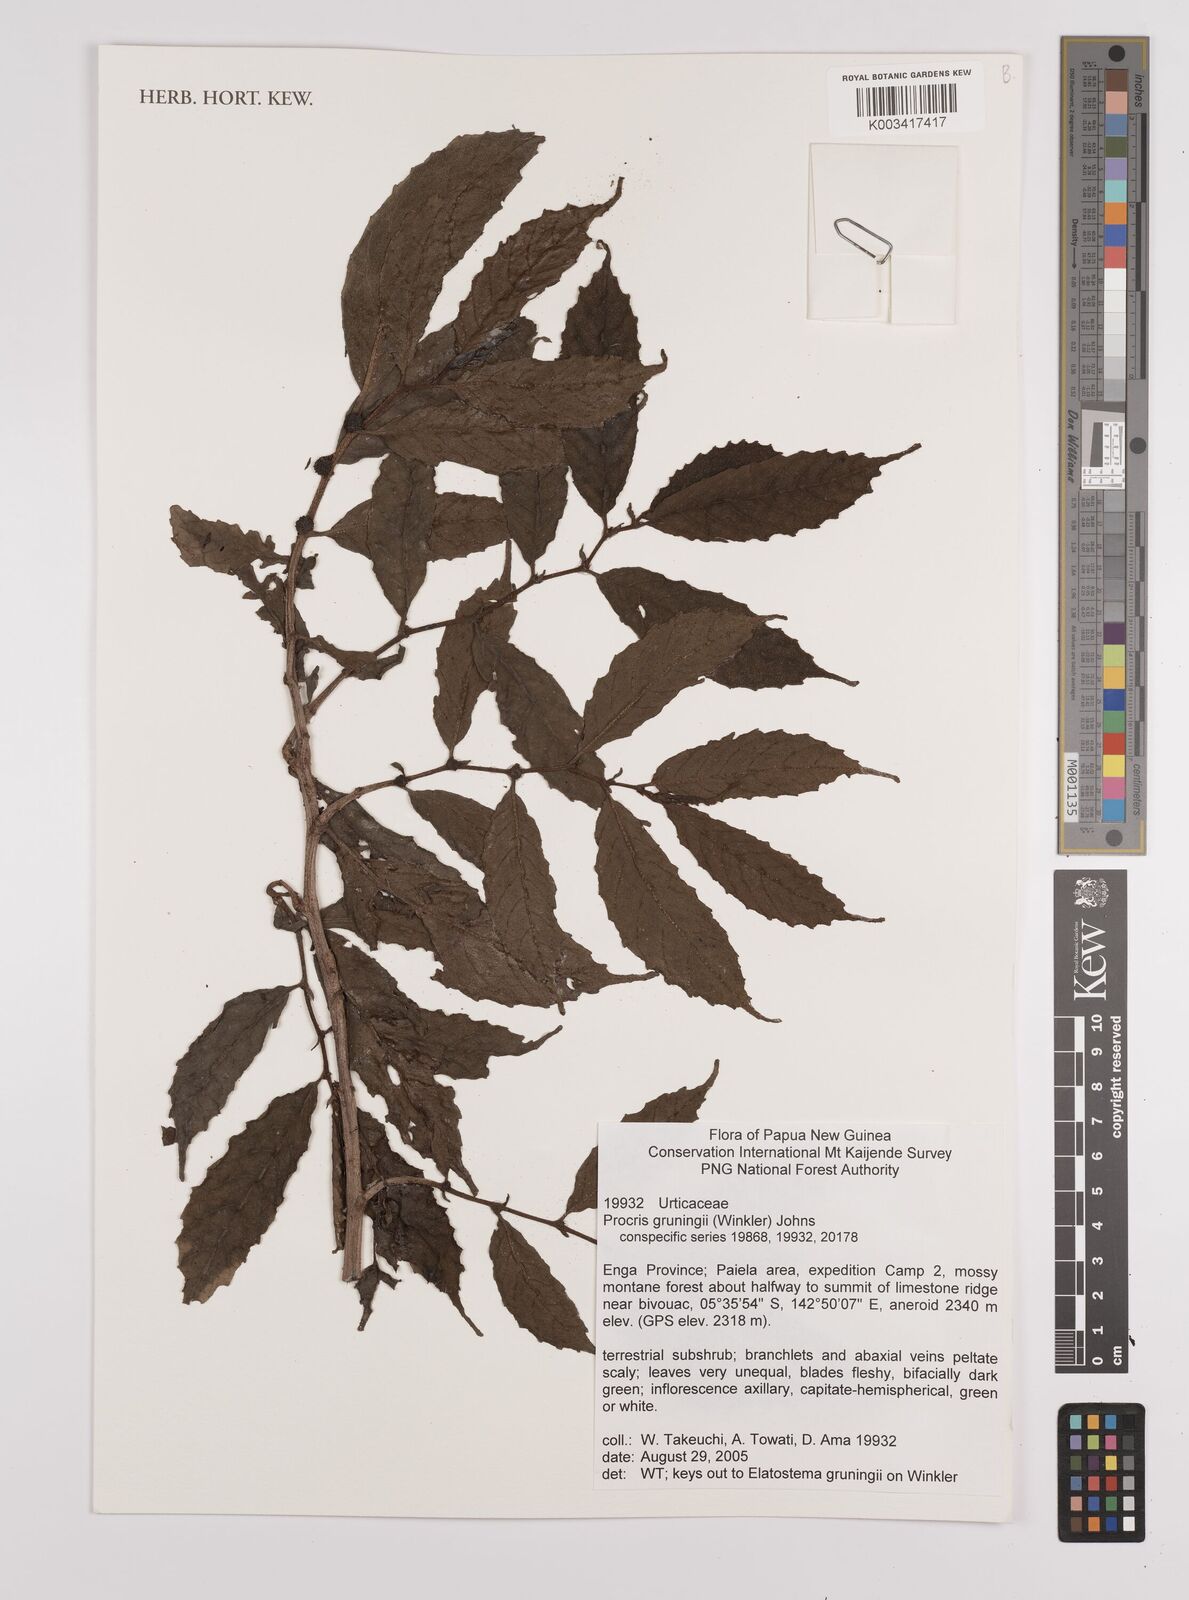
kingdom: Plantae
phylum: Tracheophyta
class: Magnoliopsida
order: Rosales
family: Urticaceae
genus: Procris
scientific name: Procris grueningii
